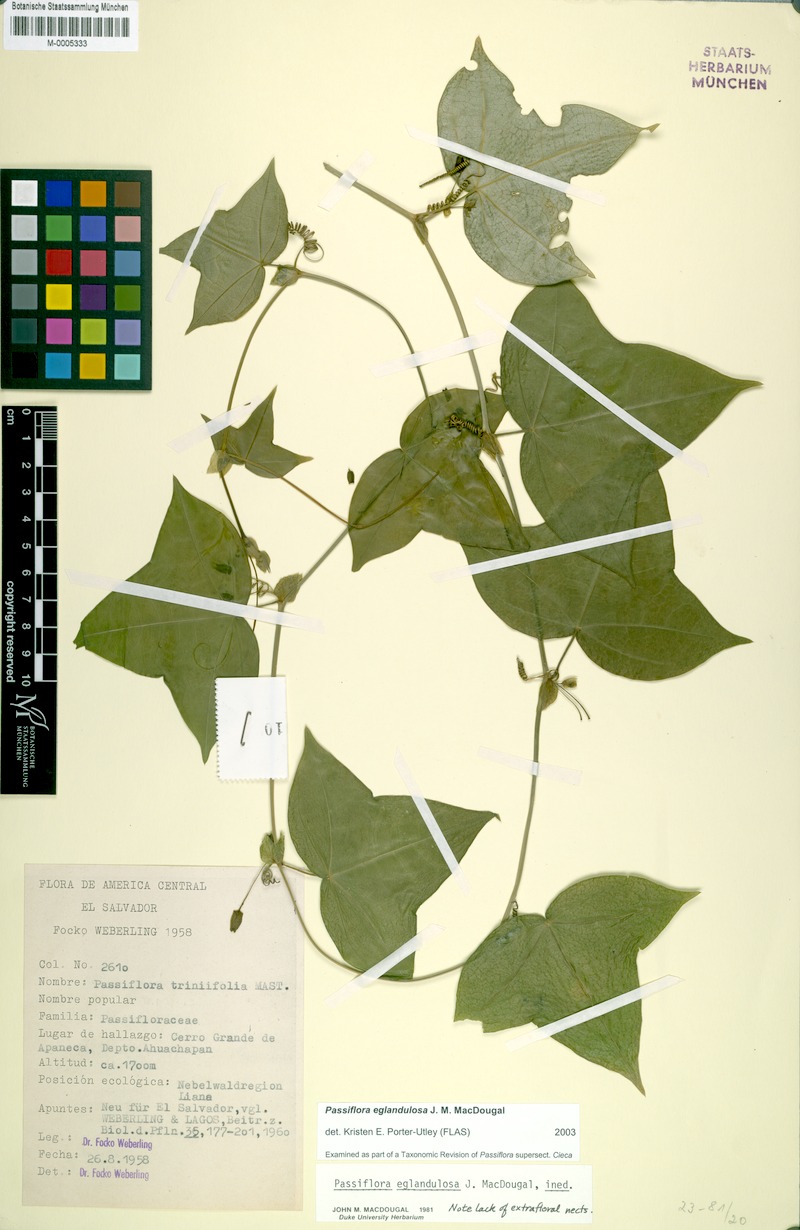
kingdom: Plantae
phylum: Tracheophyta
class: Magnoliopsida
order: Malpighiales
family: Passifloraceae
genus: Passiflora
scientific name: Passiflora eglandulosa
